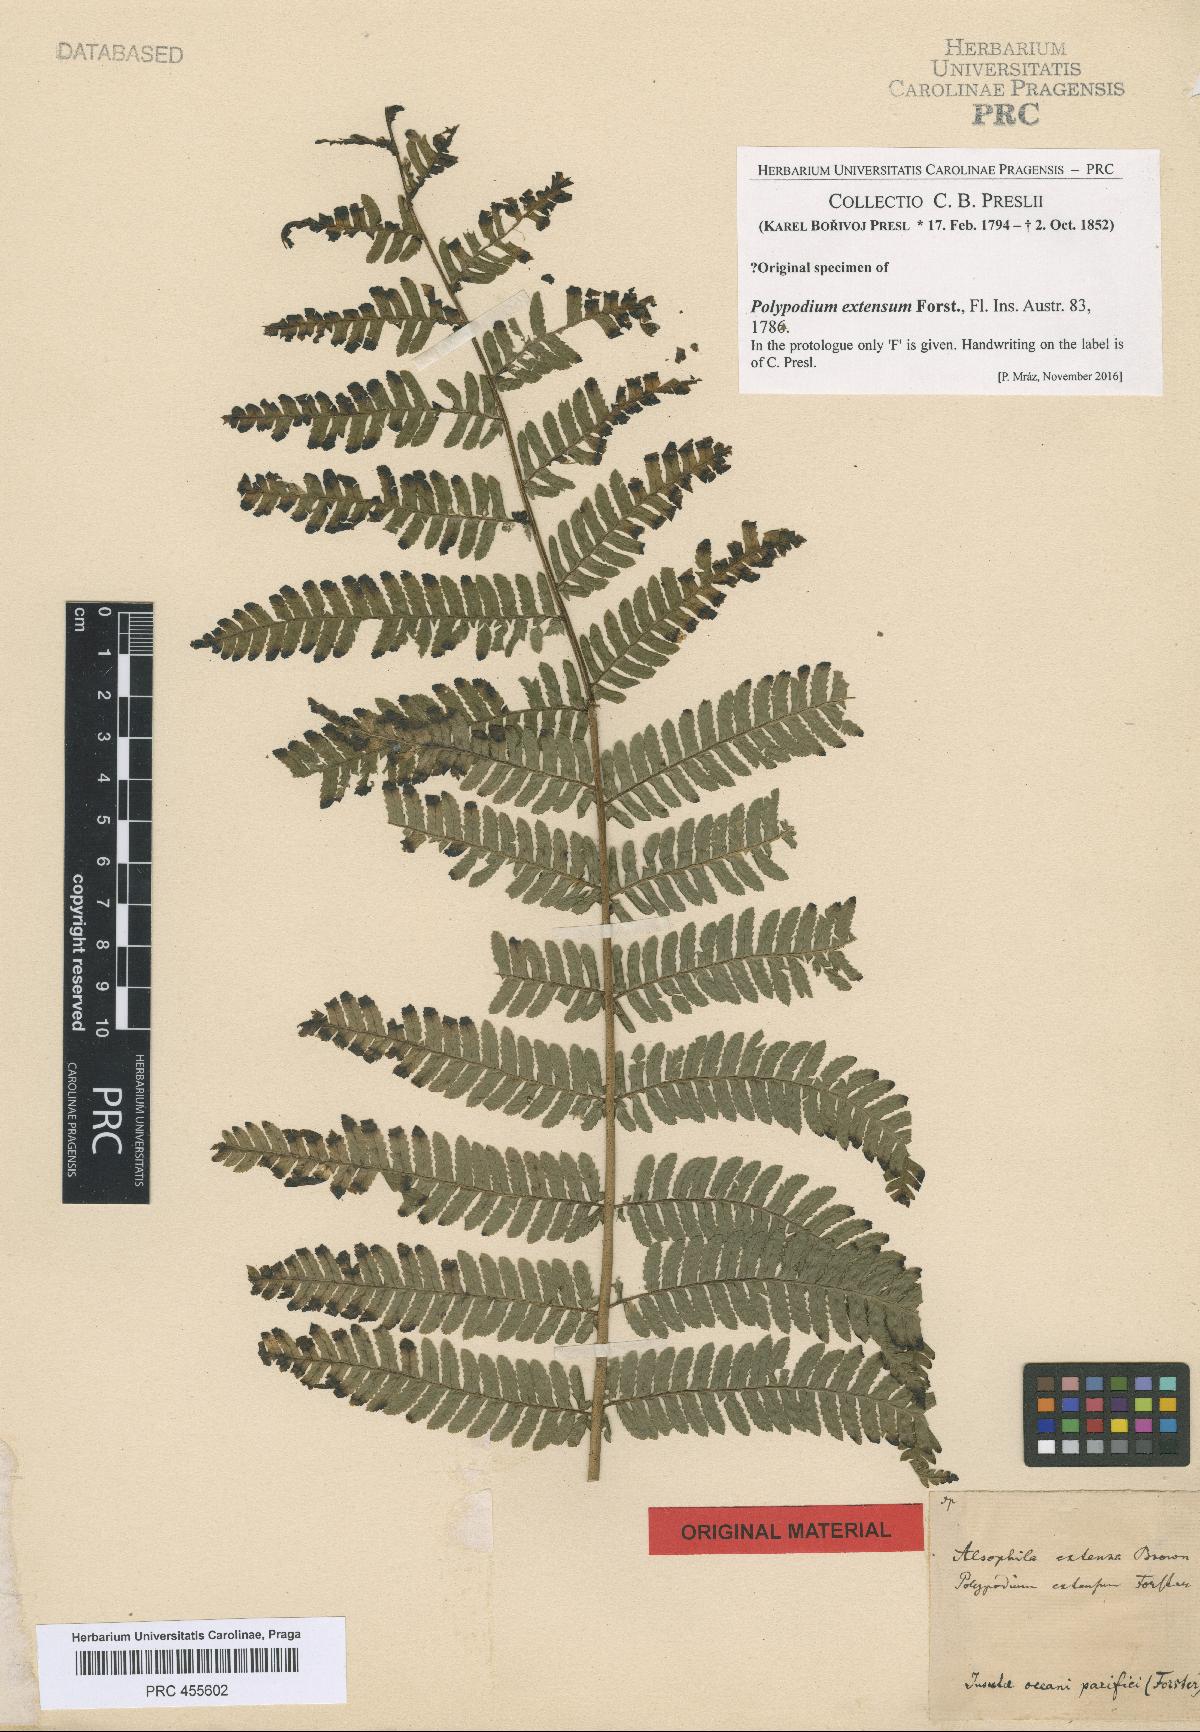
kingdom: Plantae
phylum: Tracheophyta
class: Polypodiopsida
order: Polypodiales
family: Polypodiaceae
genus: Pecluma
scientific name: Pecluma recurvata
